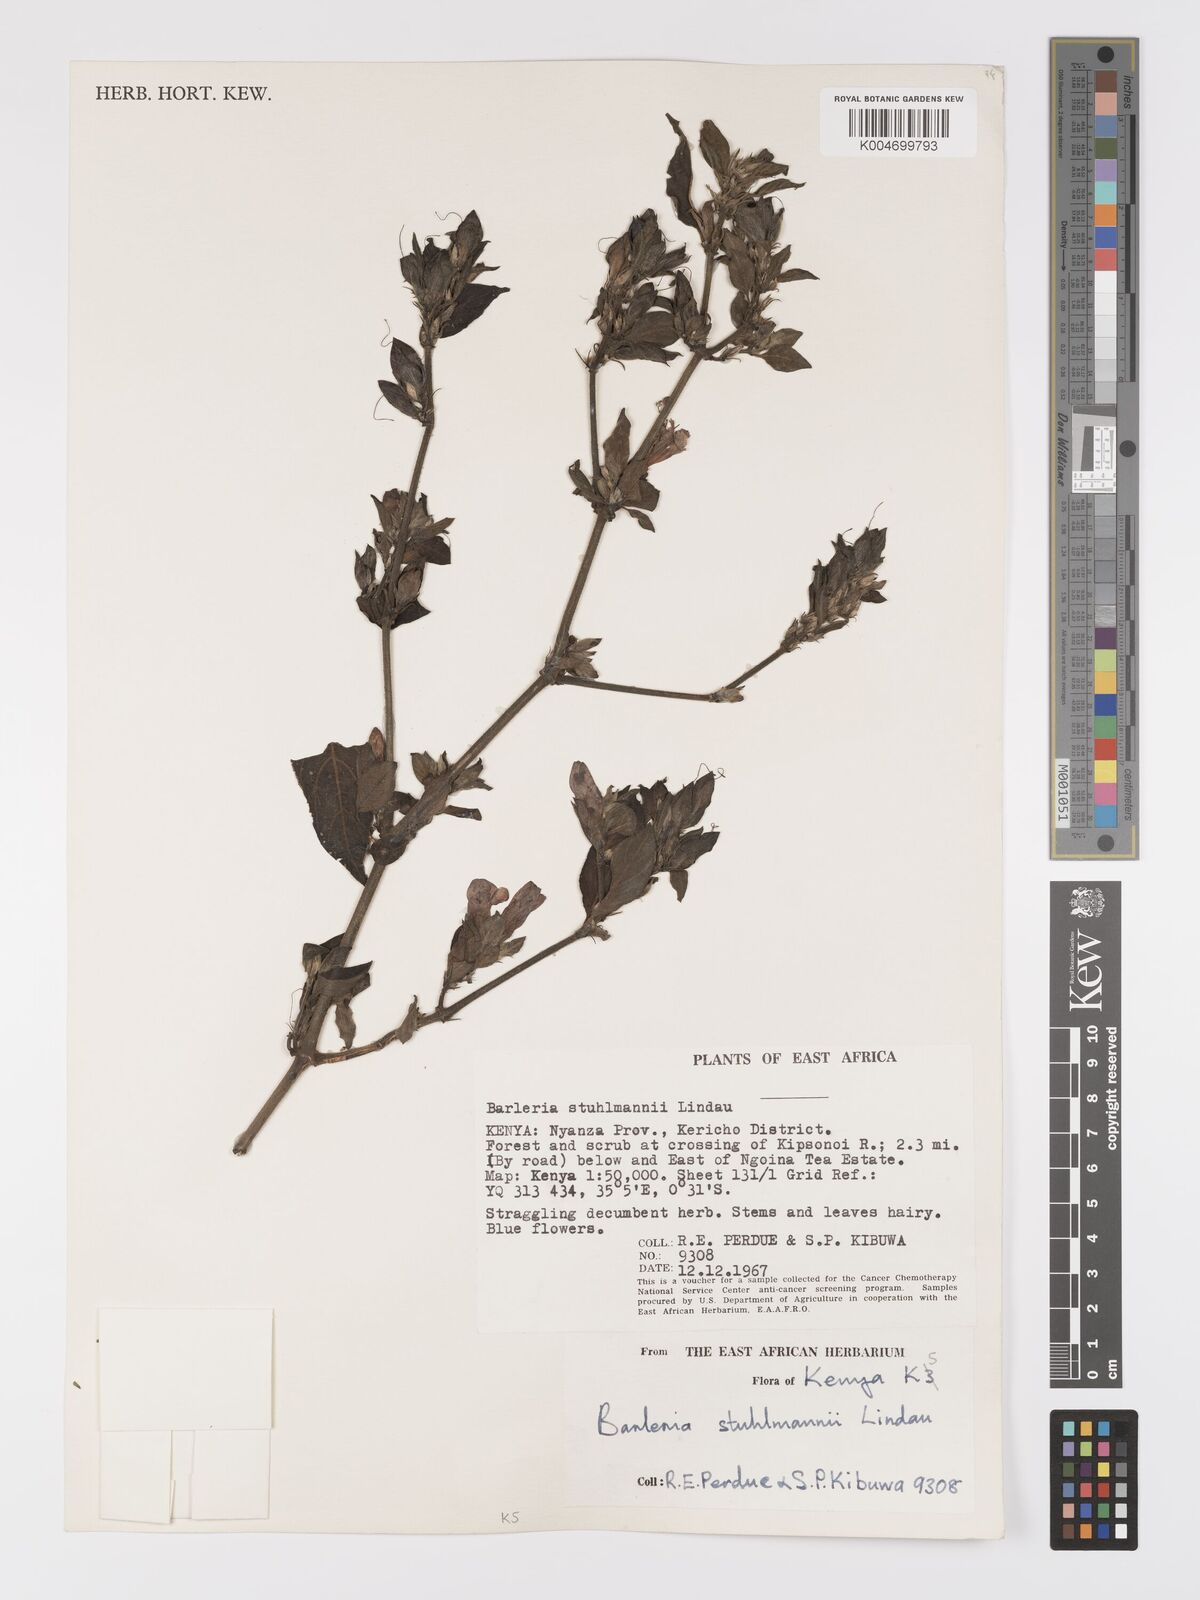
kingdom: Plantae
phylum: Tracheophyta
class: Magnoliopsida
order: Lamiales
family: Acanthaceae
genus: Barleria
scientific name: Barleria ventricosa
